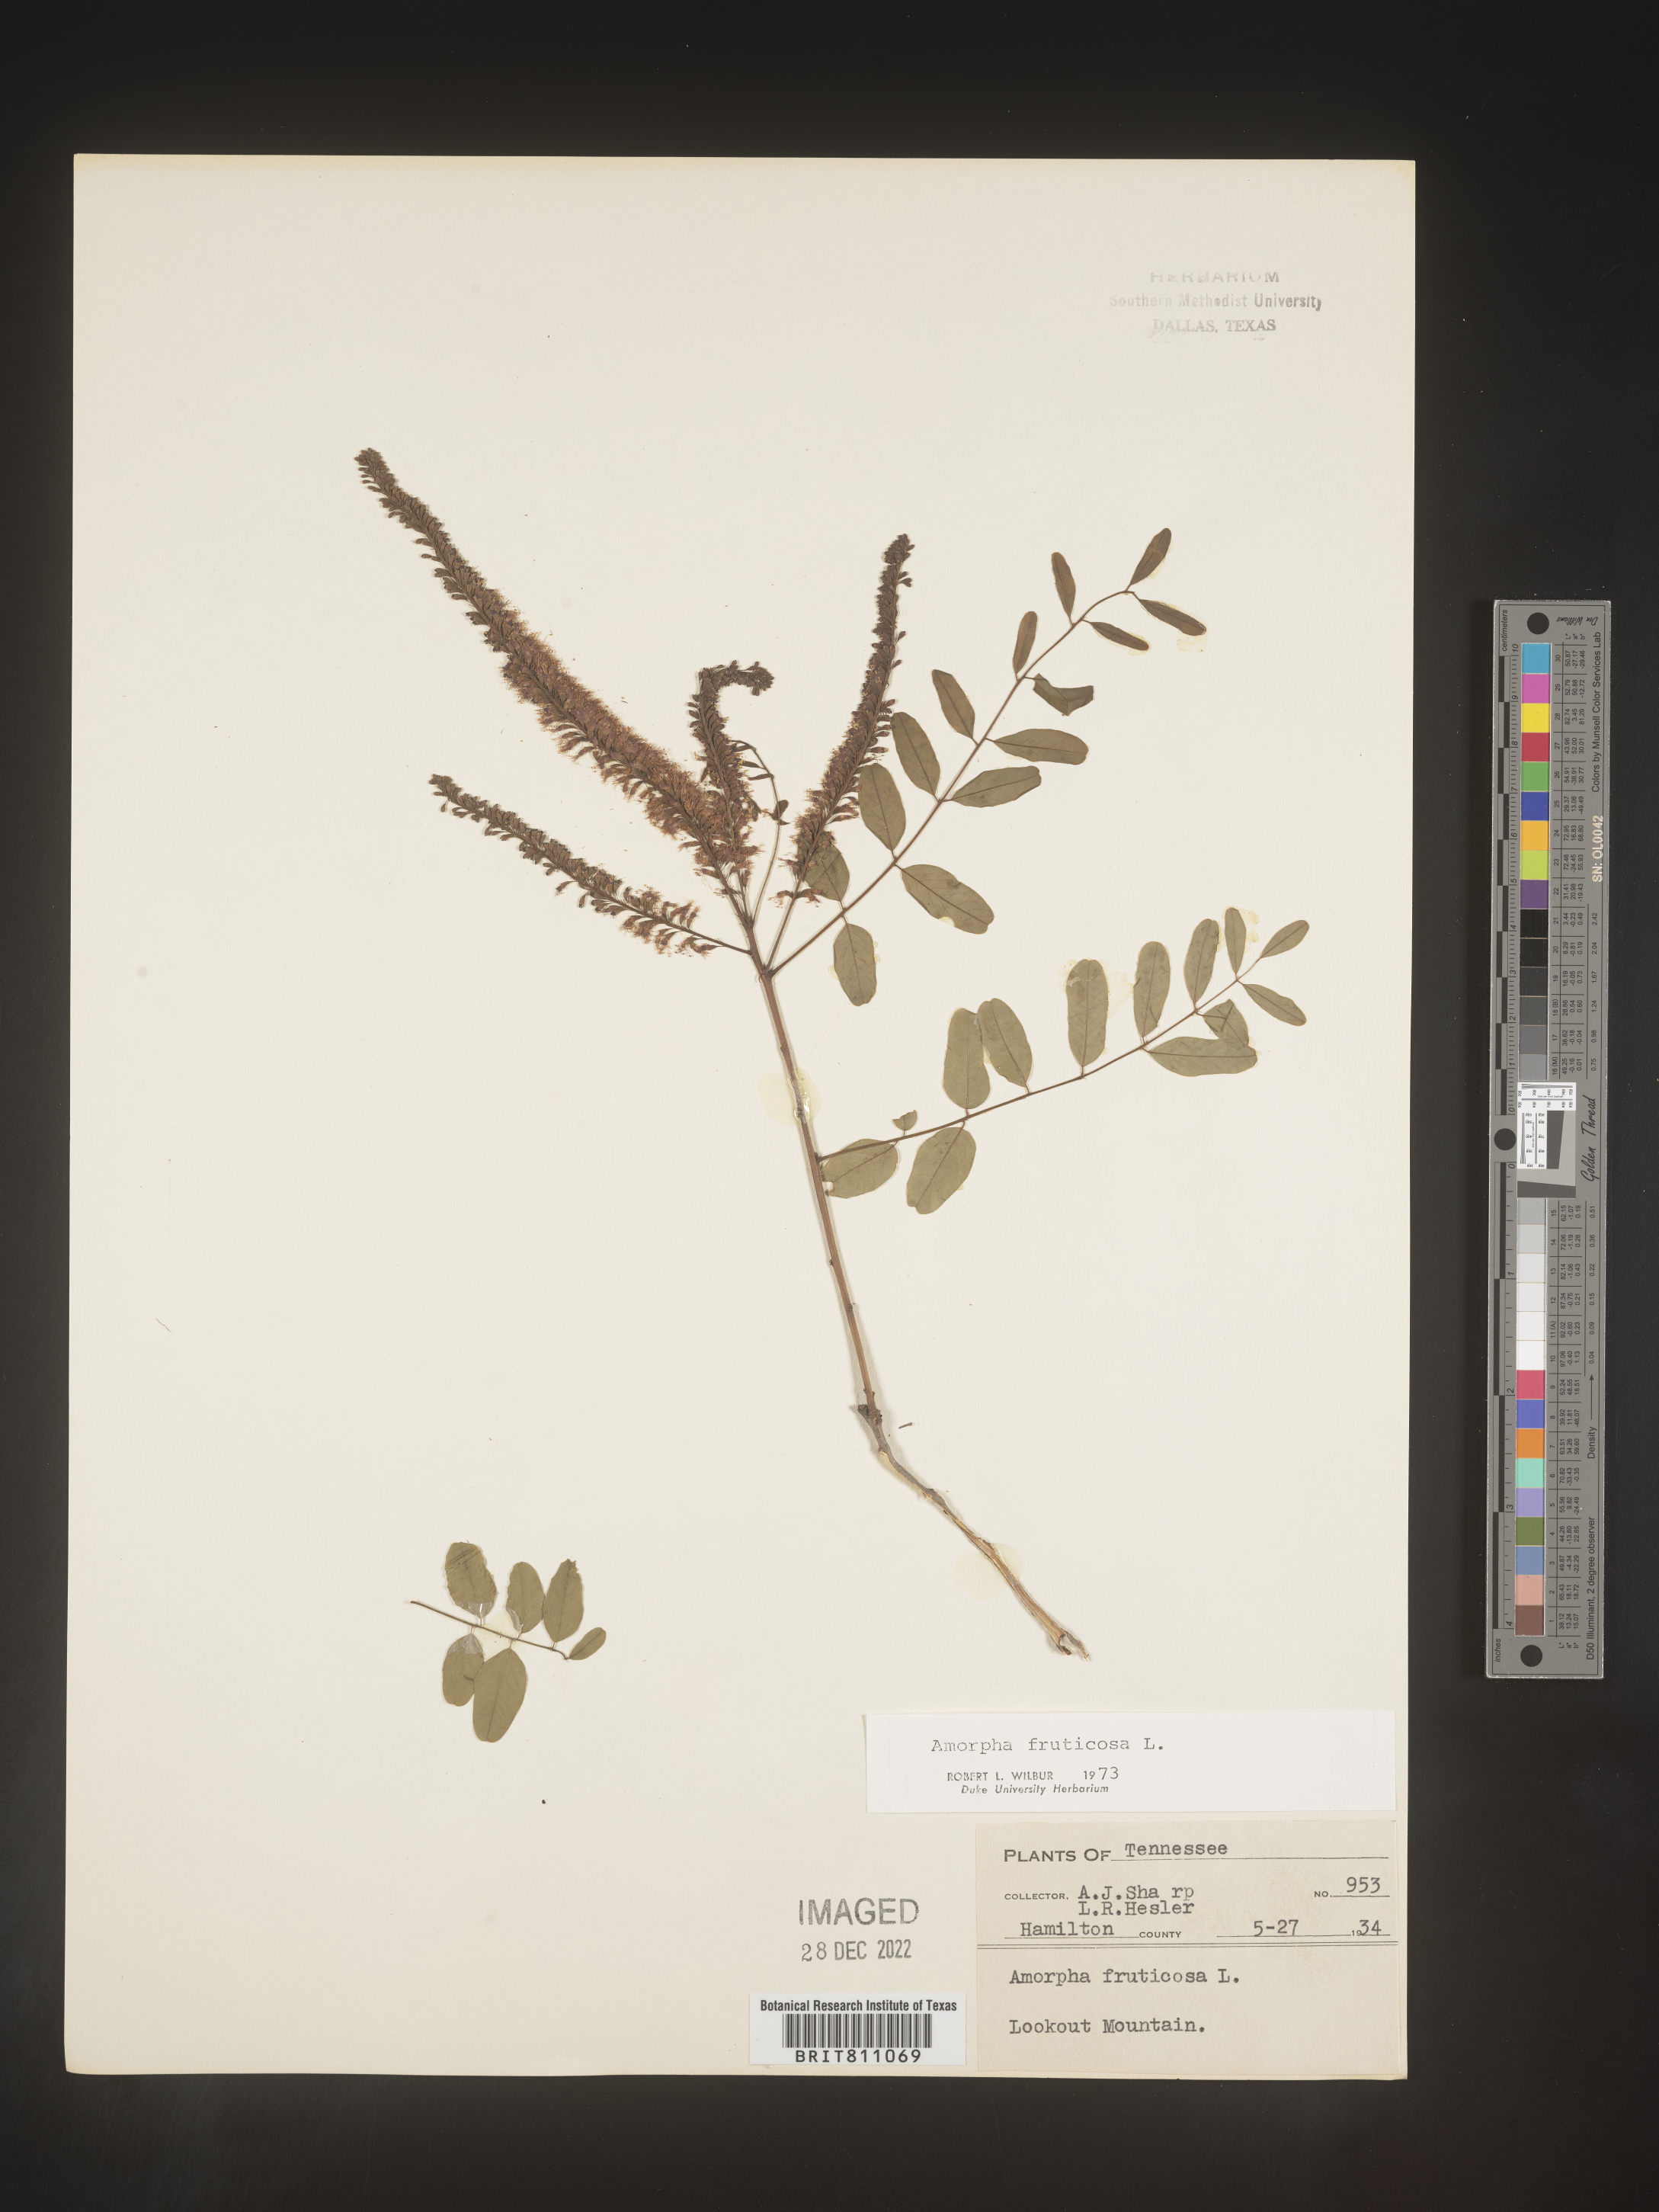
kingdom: Plantae
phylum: Tracheophyta
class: Magnoliopsida
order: Fabales
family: Fabaceae
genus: Amorpha
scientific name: Amorpha fruticosa
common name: False indigo
